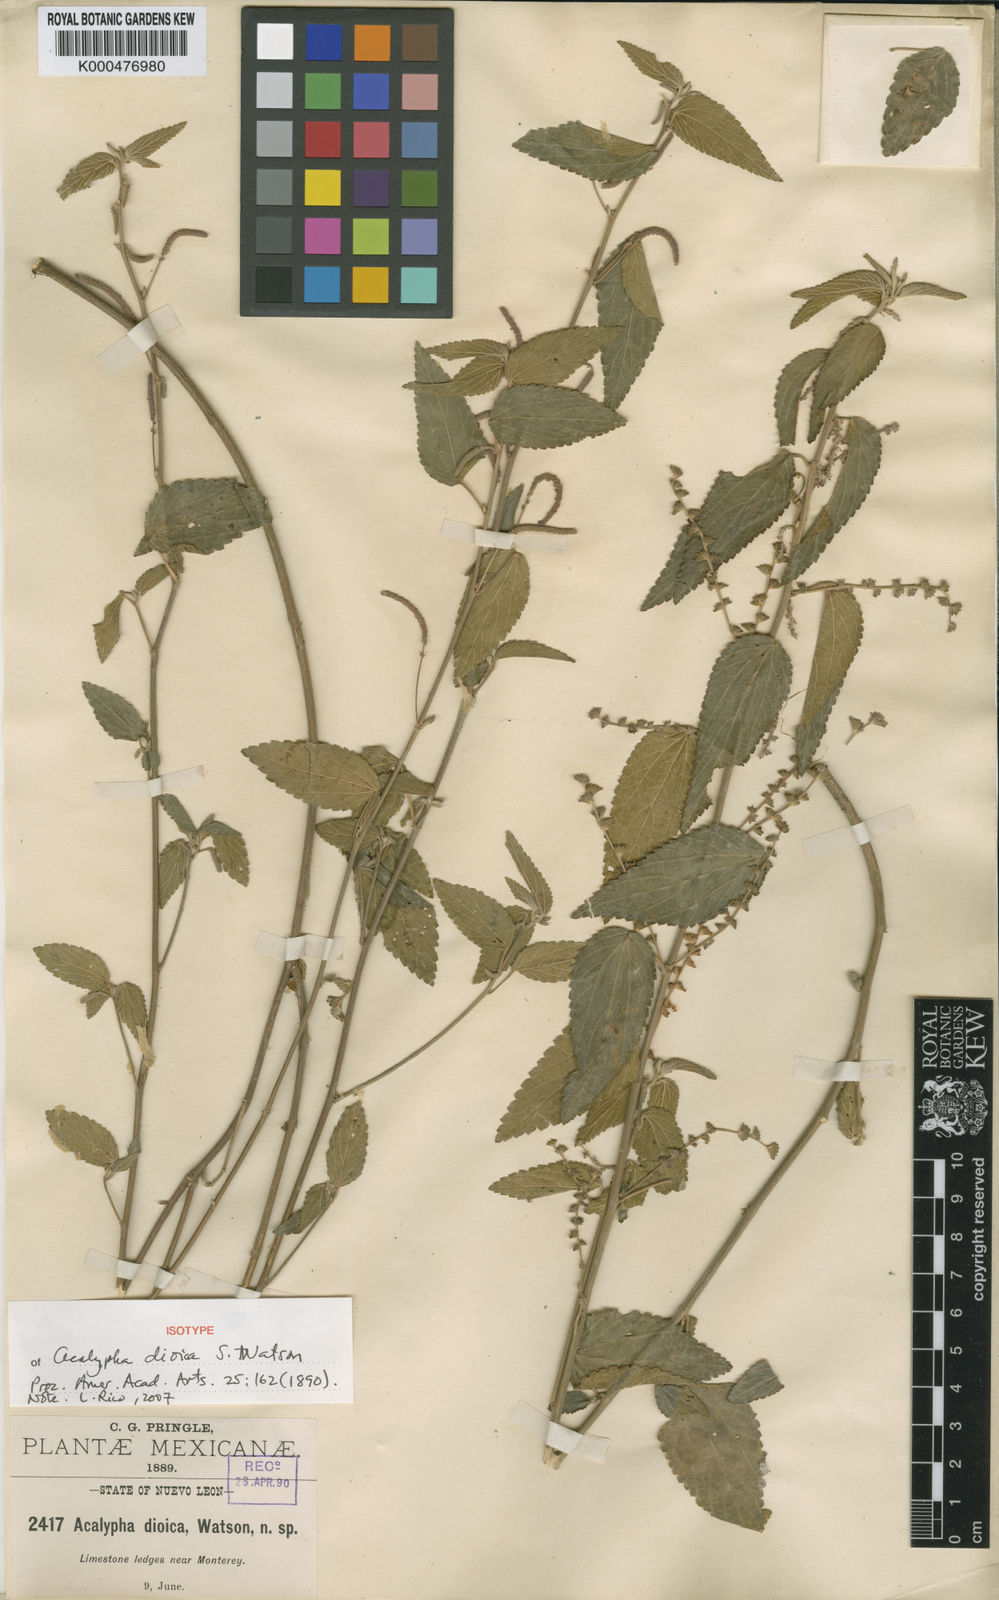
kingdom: Plantae
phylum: Tracheophyta
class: Magnoliopsida
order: Malpighiales
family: Euphorbiaceae
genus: Acalypha
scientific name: Acalypha dioica
